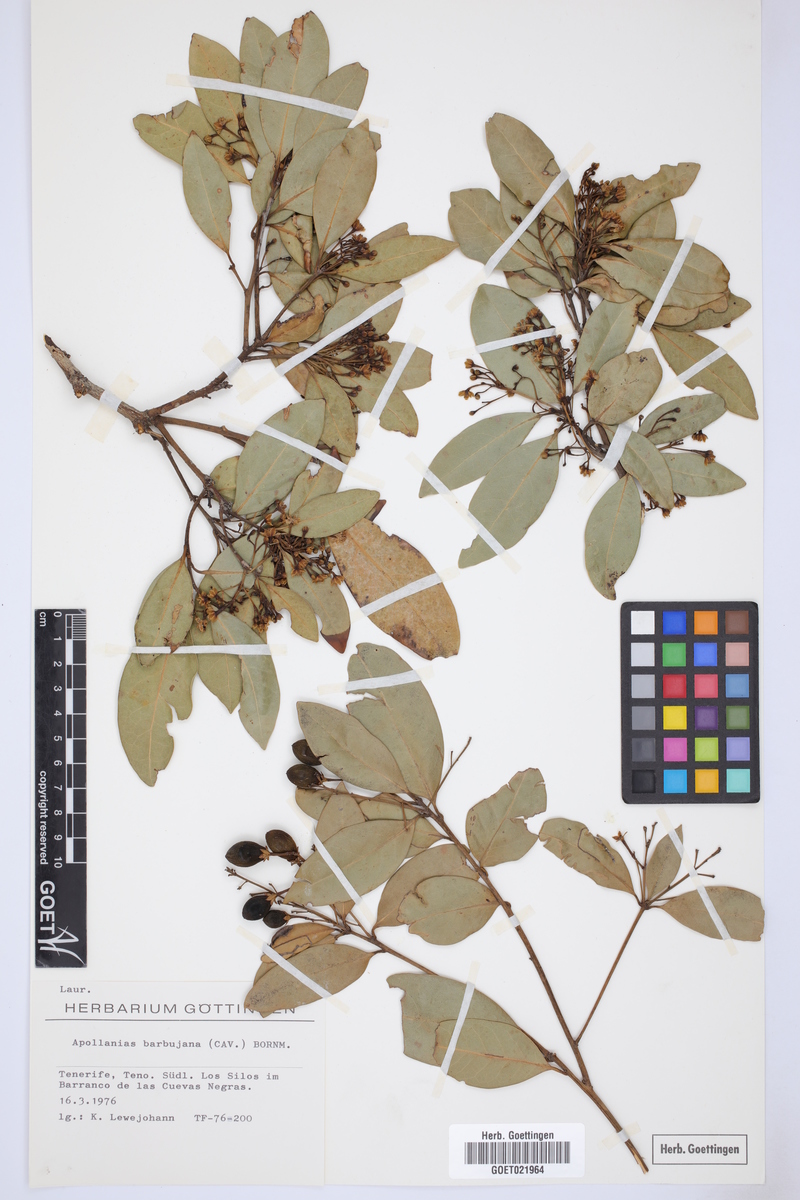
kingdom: Plantae
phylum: Tracheophyta
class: Magnoliopsida
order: Laurales
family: Lauraceae
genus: Apollonias
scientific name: Apollonias barbujana
